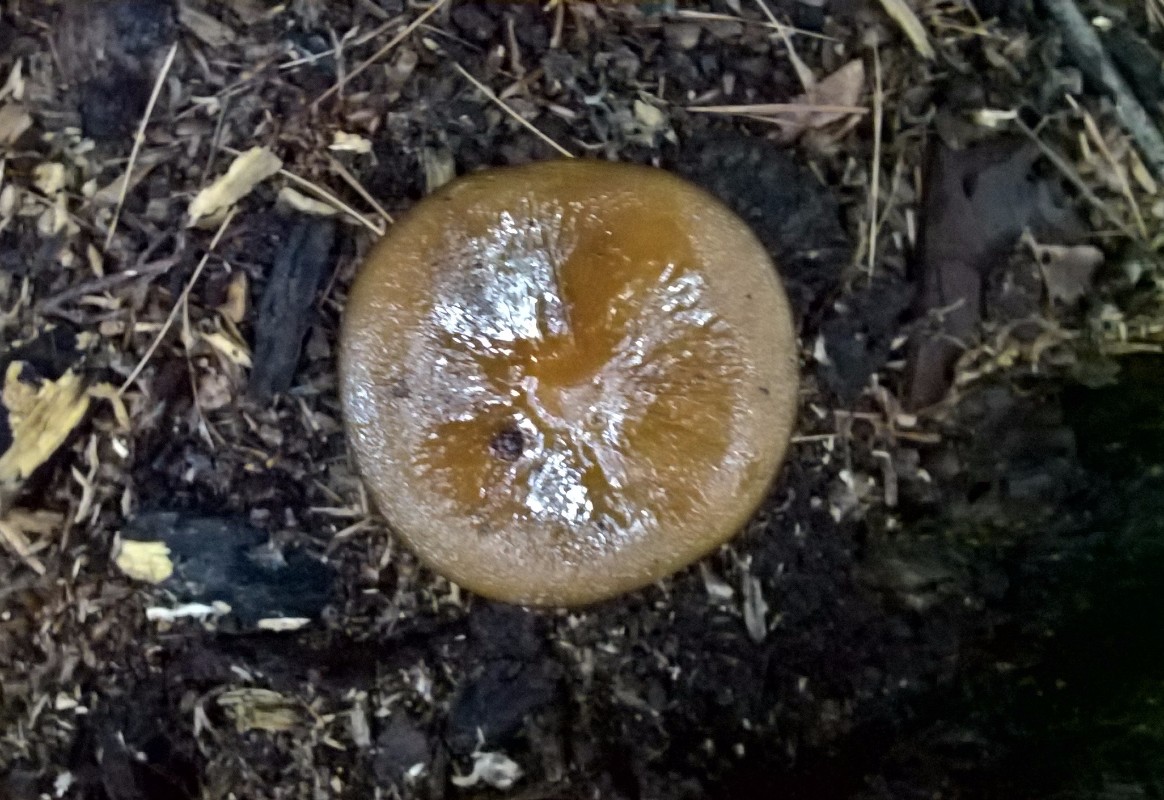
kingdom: Fungi
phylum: Basidiomycota
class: Agaricomycetes
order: Agaricales
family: Physalacriaceae
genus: Hymenopellis
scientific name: Hymenopellis radicata
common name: almindelig pælerodshat
